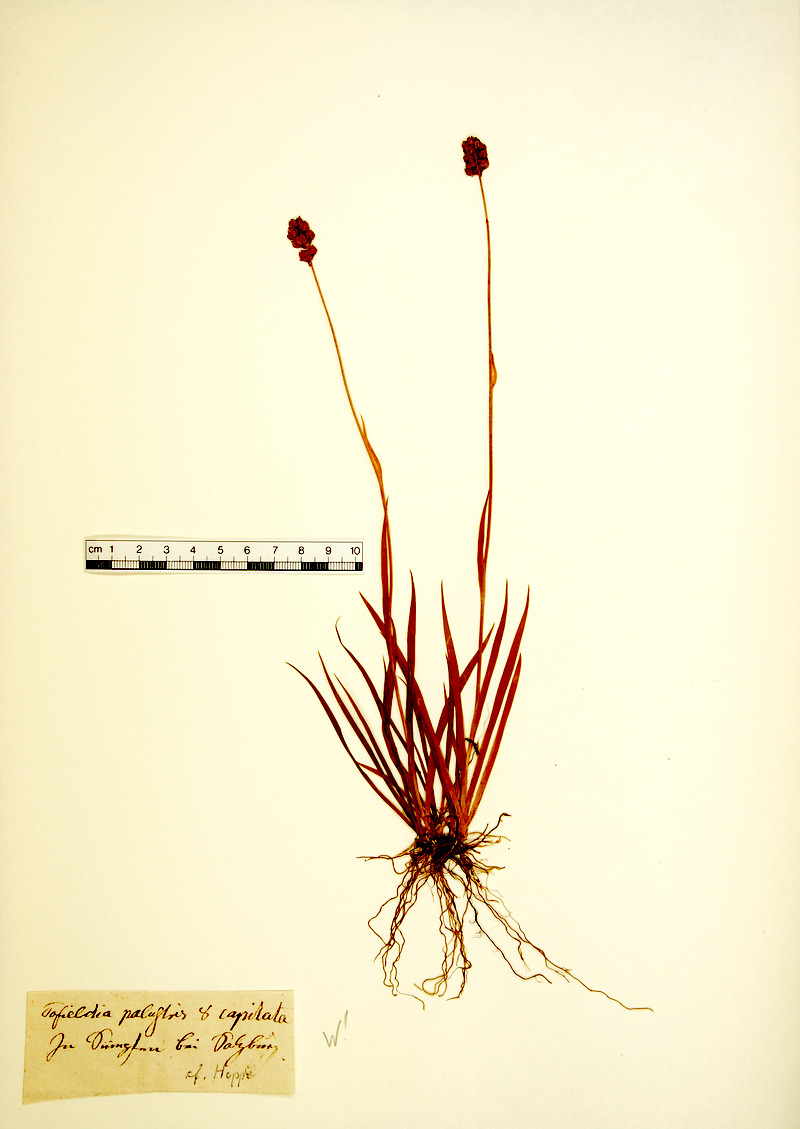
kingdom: Plantae
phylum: Tracheophyta
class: Liliopsida
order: Alismatales
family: Tofieldiaceae
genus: Tofieldia
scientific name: Tofieldia pusilla
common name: Scottish false asphodel
